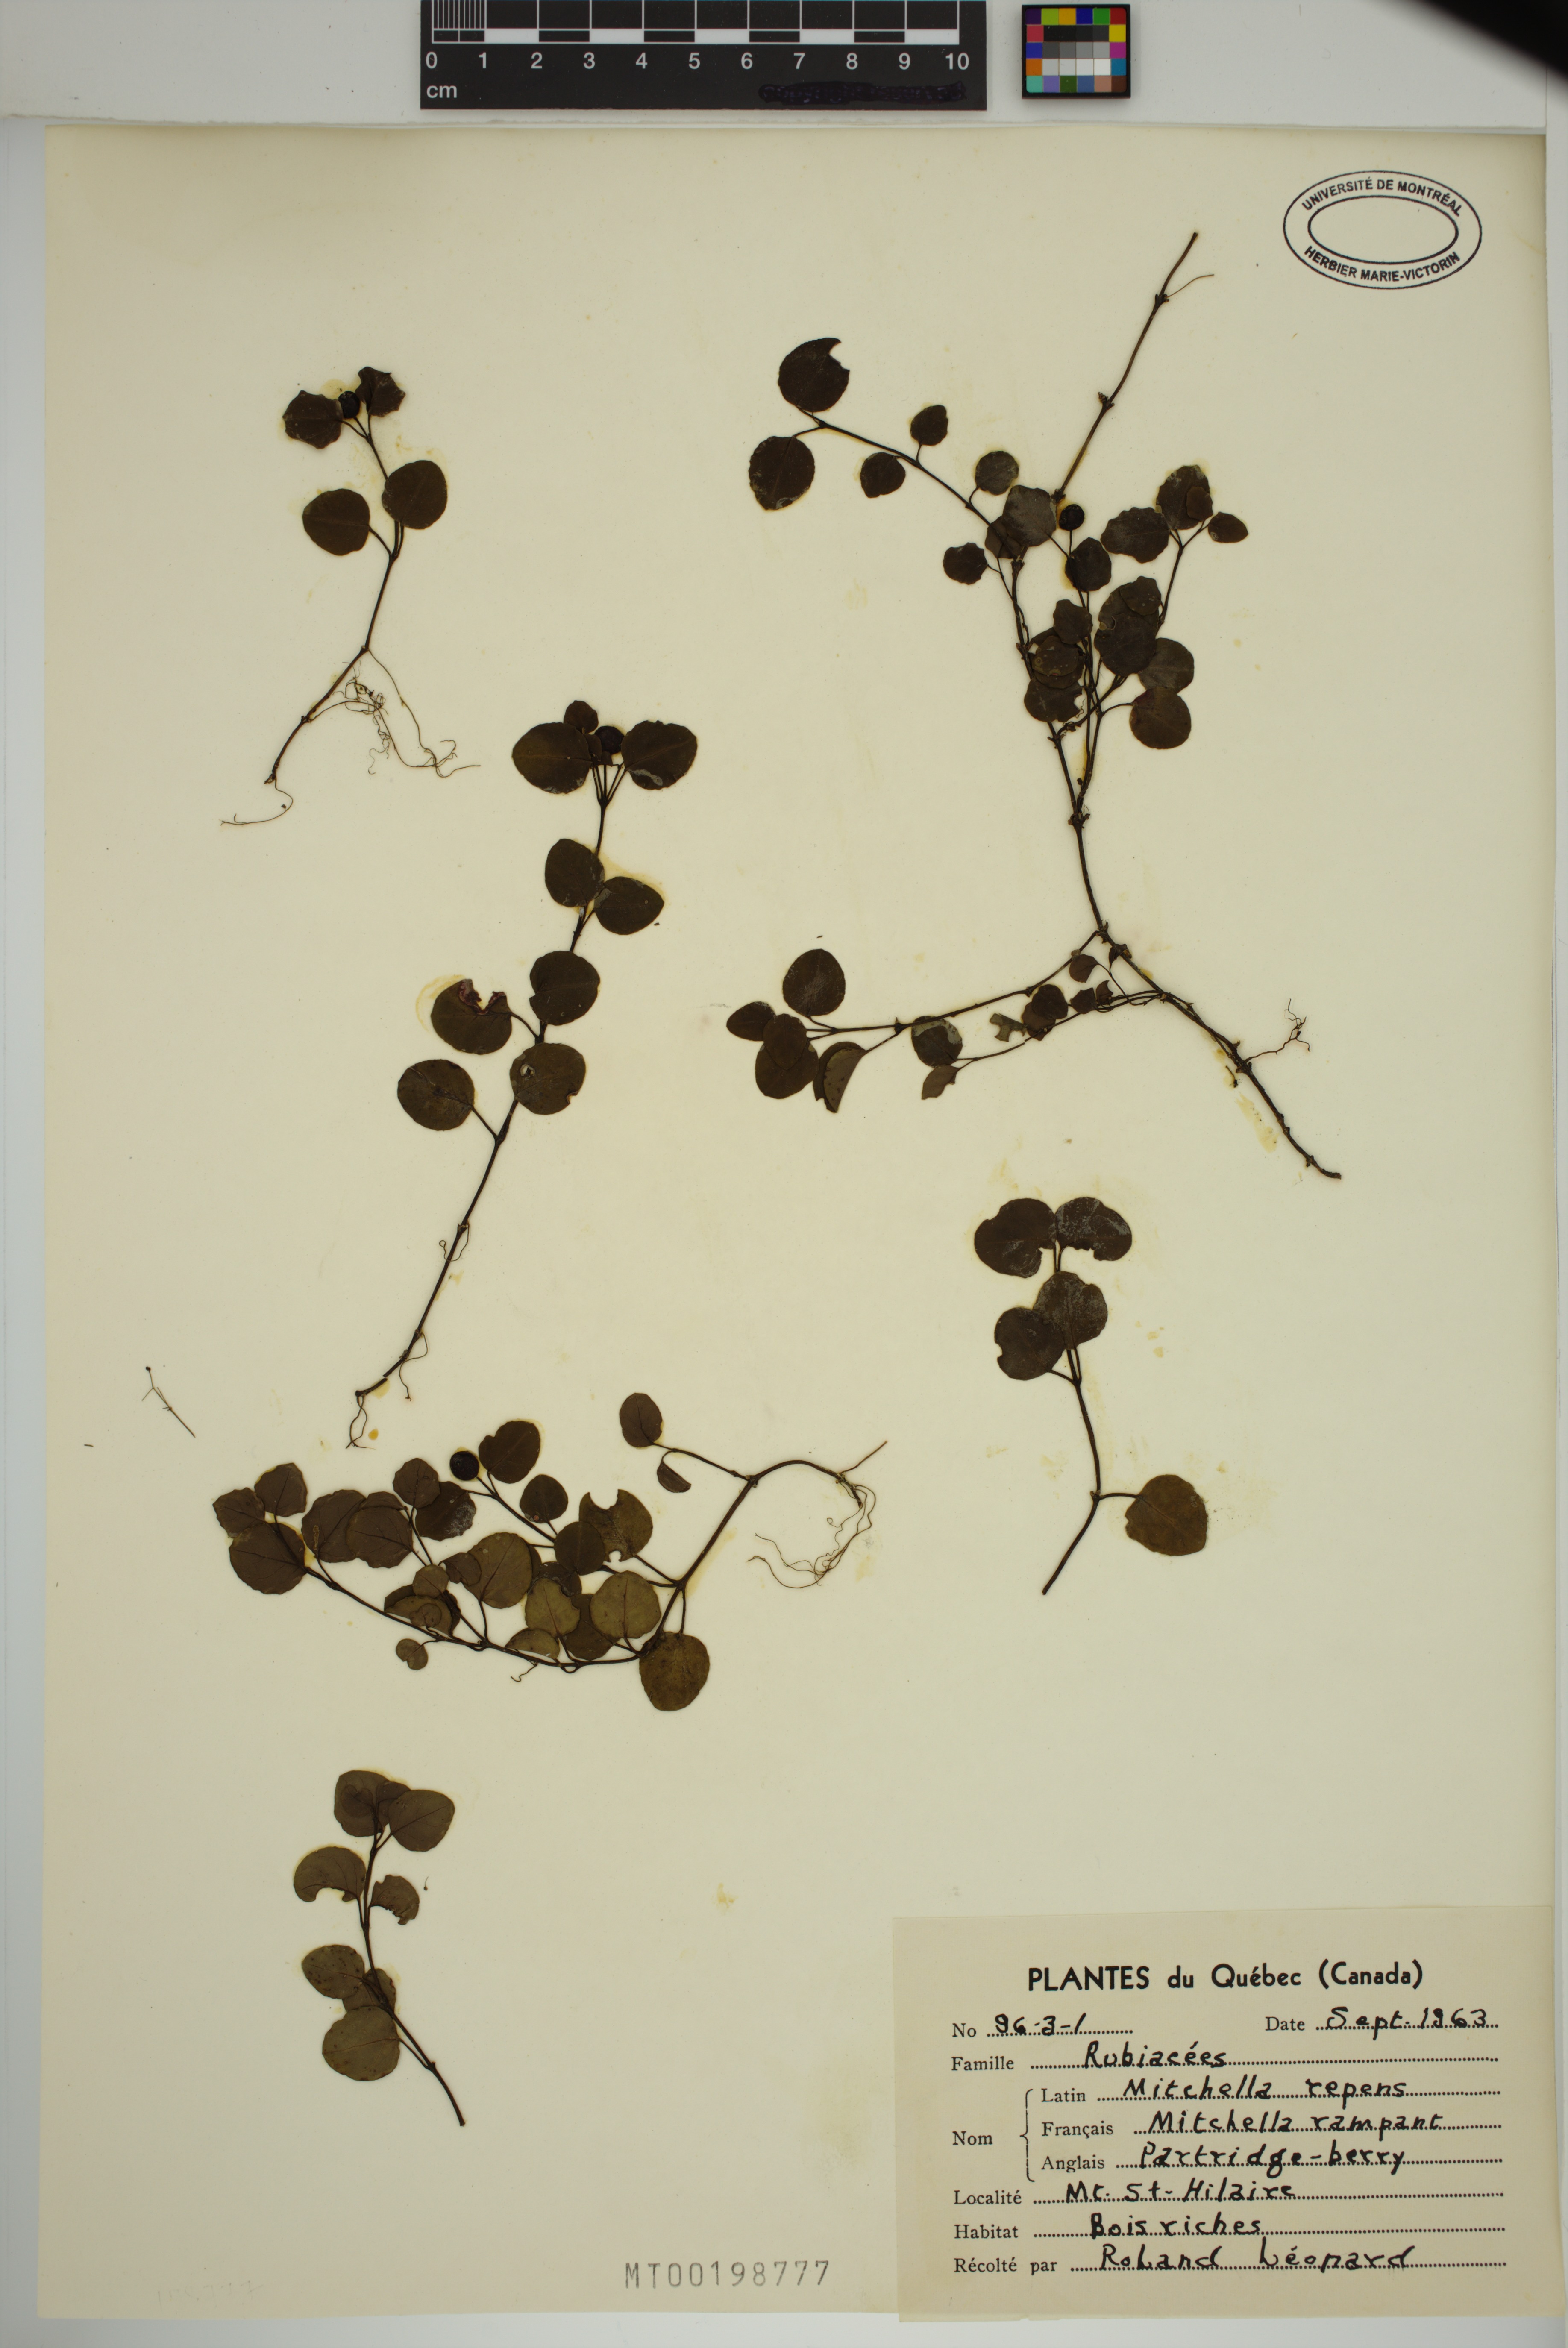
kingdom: Plantae
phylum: Tracheophyta
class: Magnoliopsida
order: Gentianales
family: Rubiaceae
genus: Mitchella
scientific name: Mitchella repens
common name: Partridge-berry
